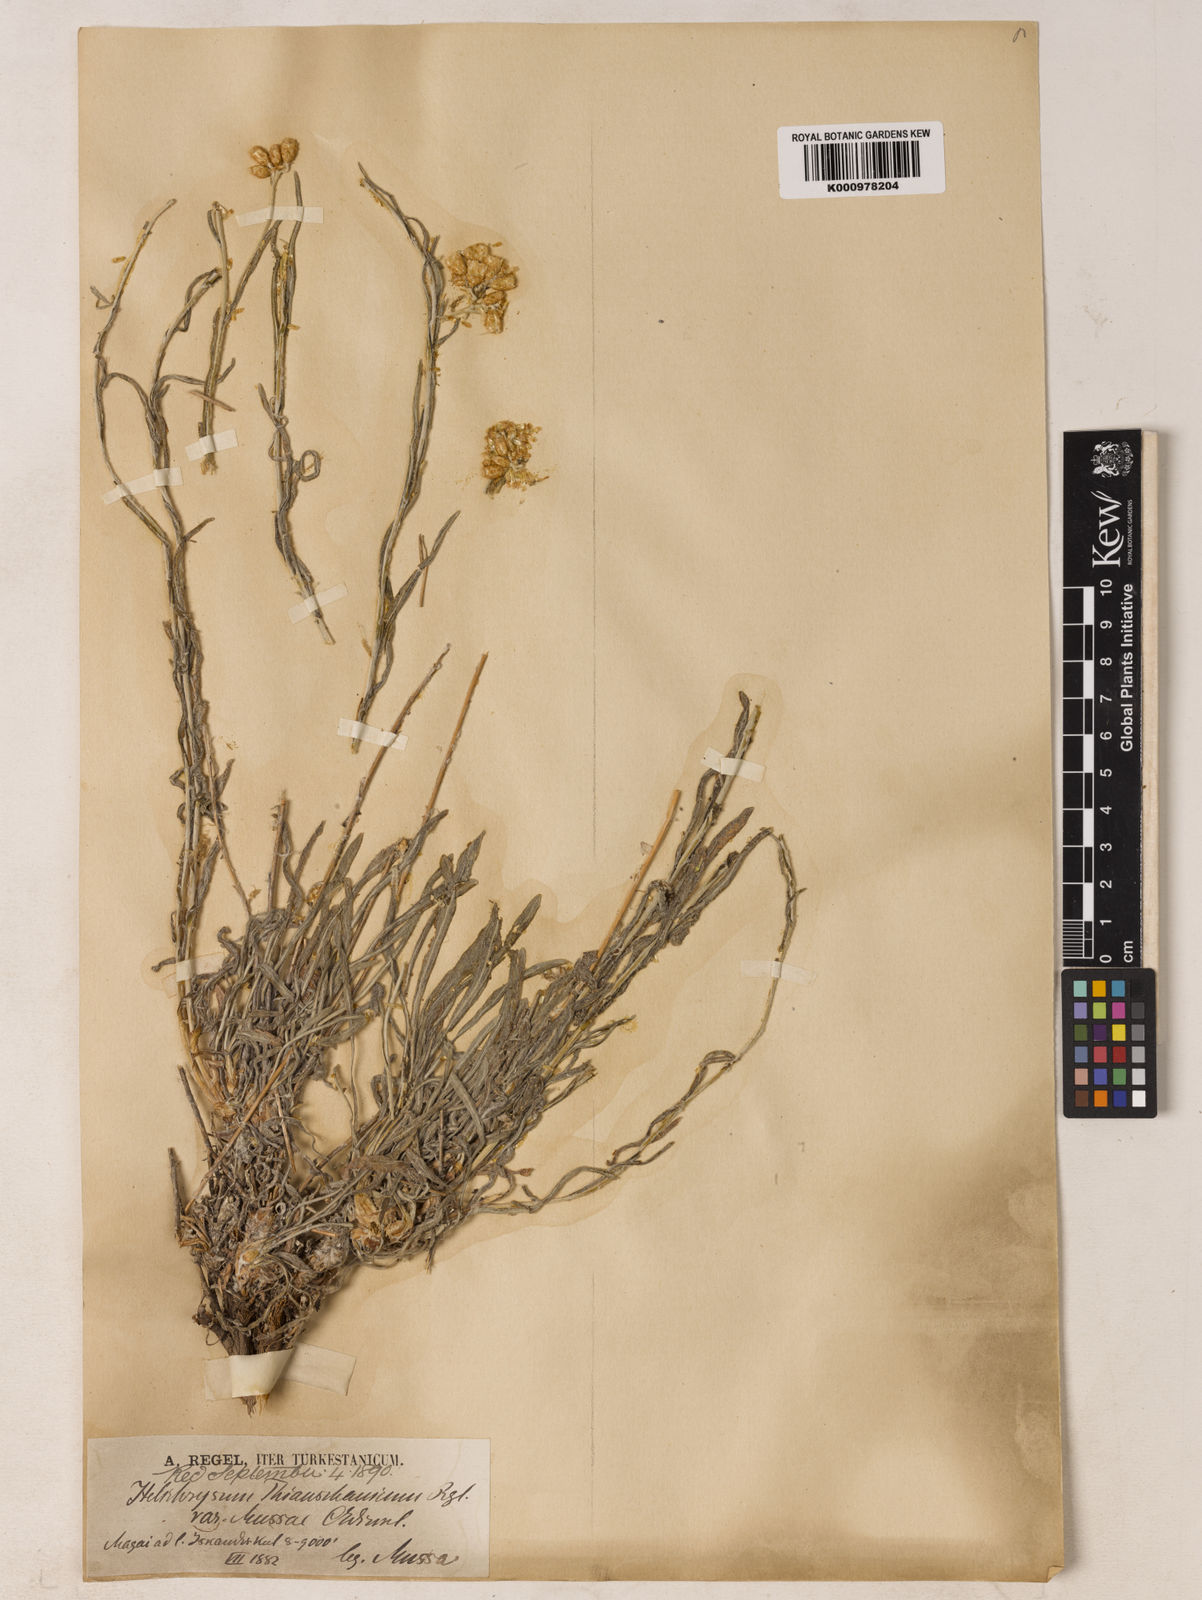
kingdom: Plantae
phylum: Tracheophyta
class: Magnoliopsida
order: Asterales
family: Asteraceae
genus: Helichrysum
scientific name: Helichrysum thianschanicum
